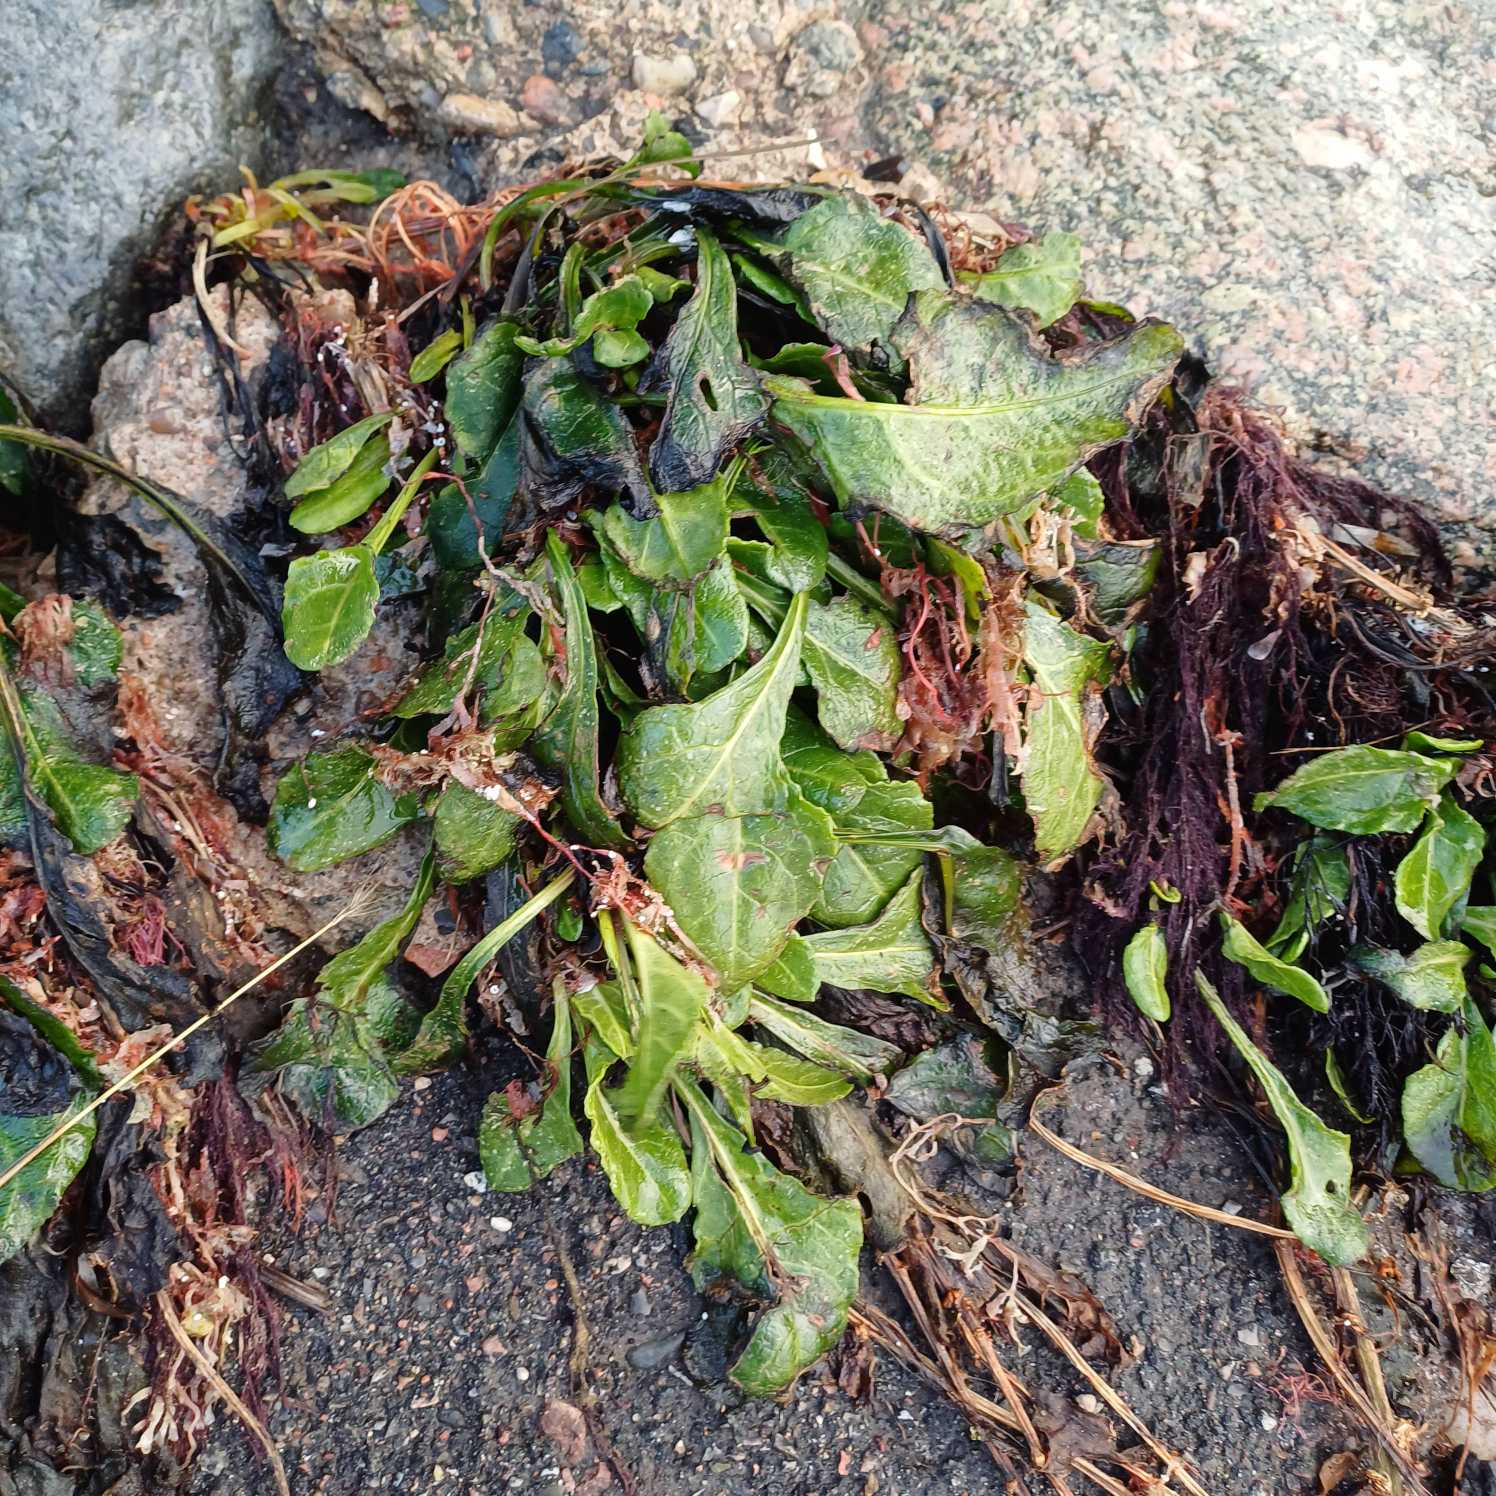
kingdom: Plantae
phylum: Tracheophyta
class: Magnoliopsida
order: Caryophyllales
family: Amaranthaceae
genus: Beta
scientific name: Beta maritima
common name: Strand-bede
